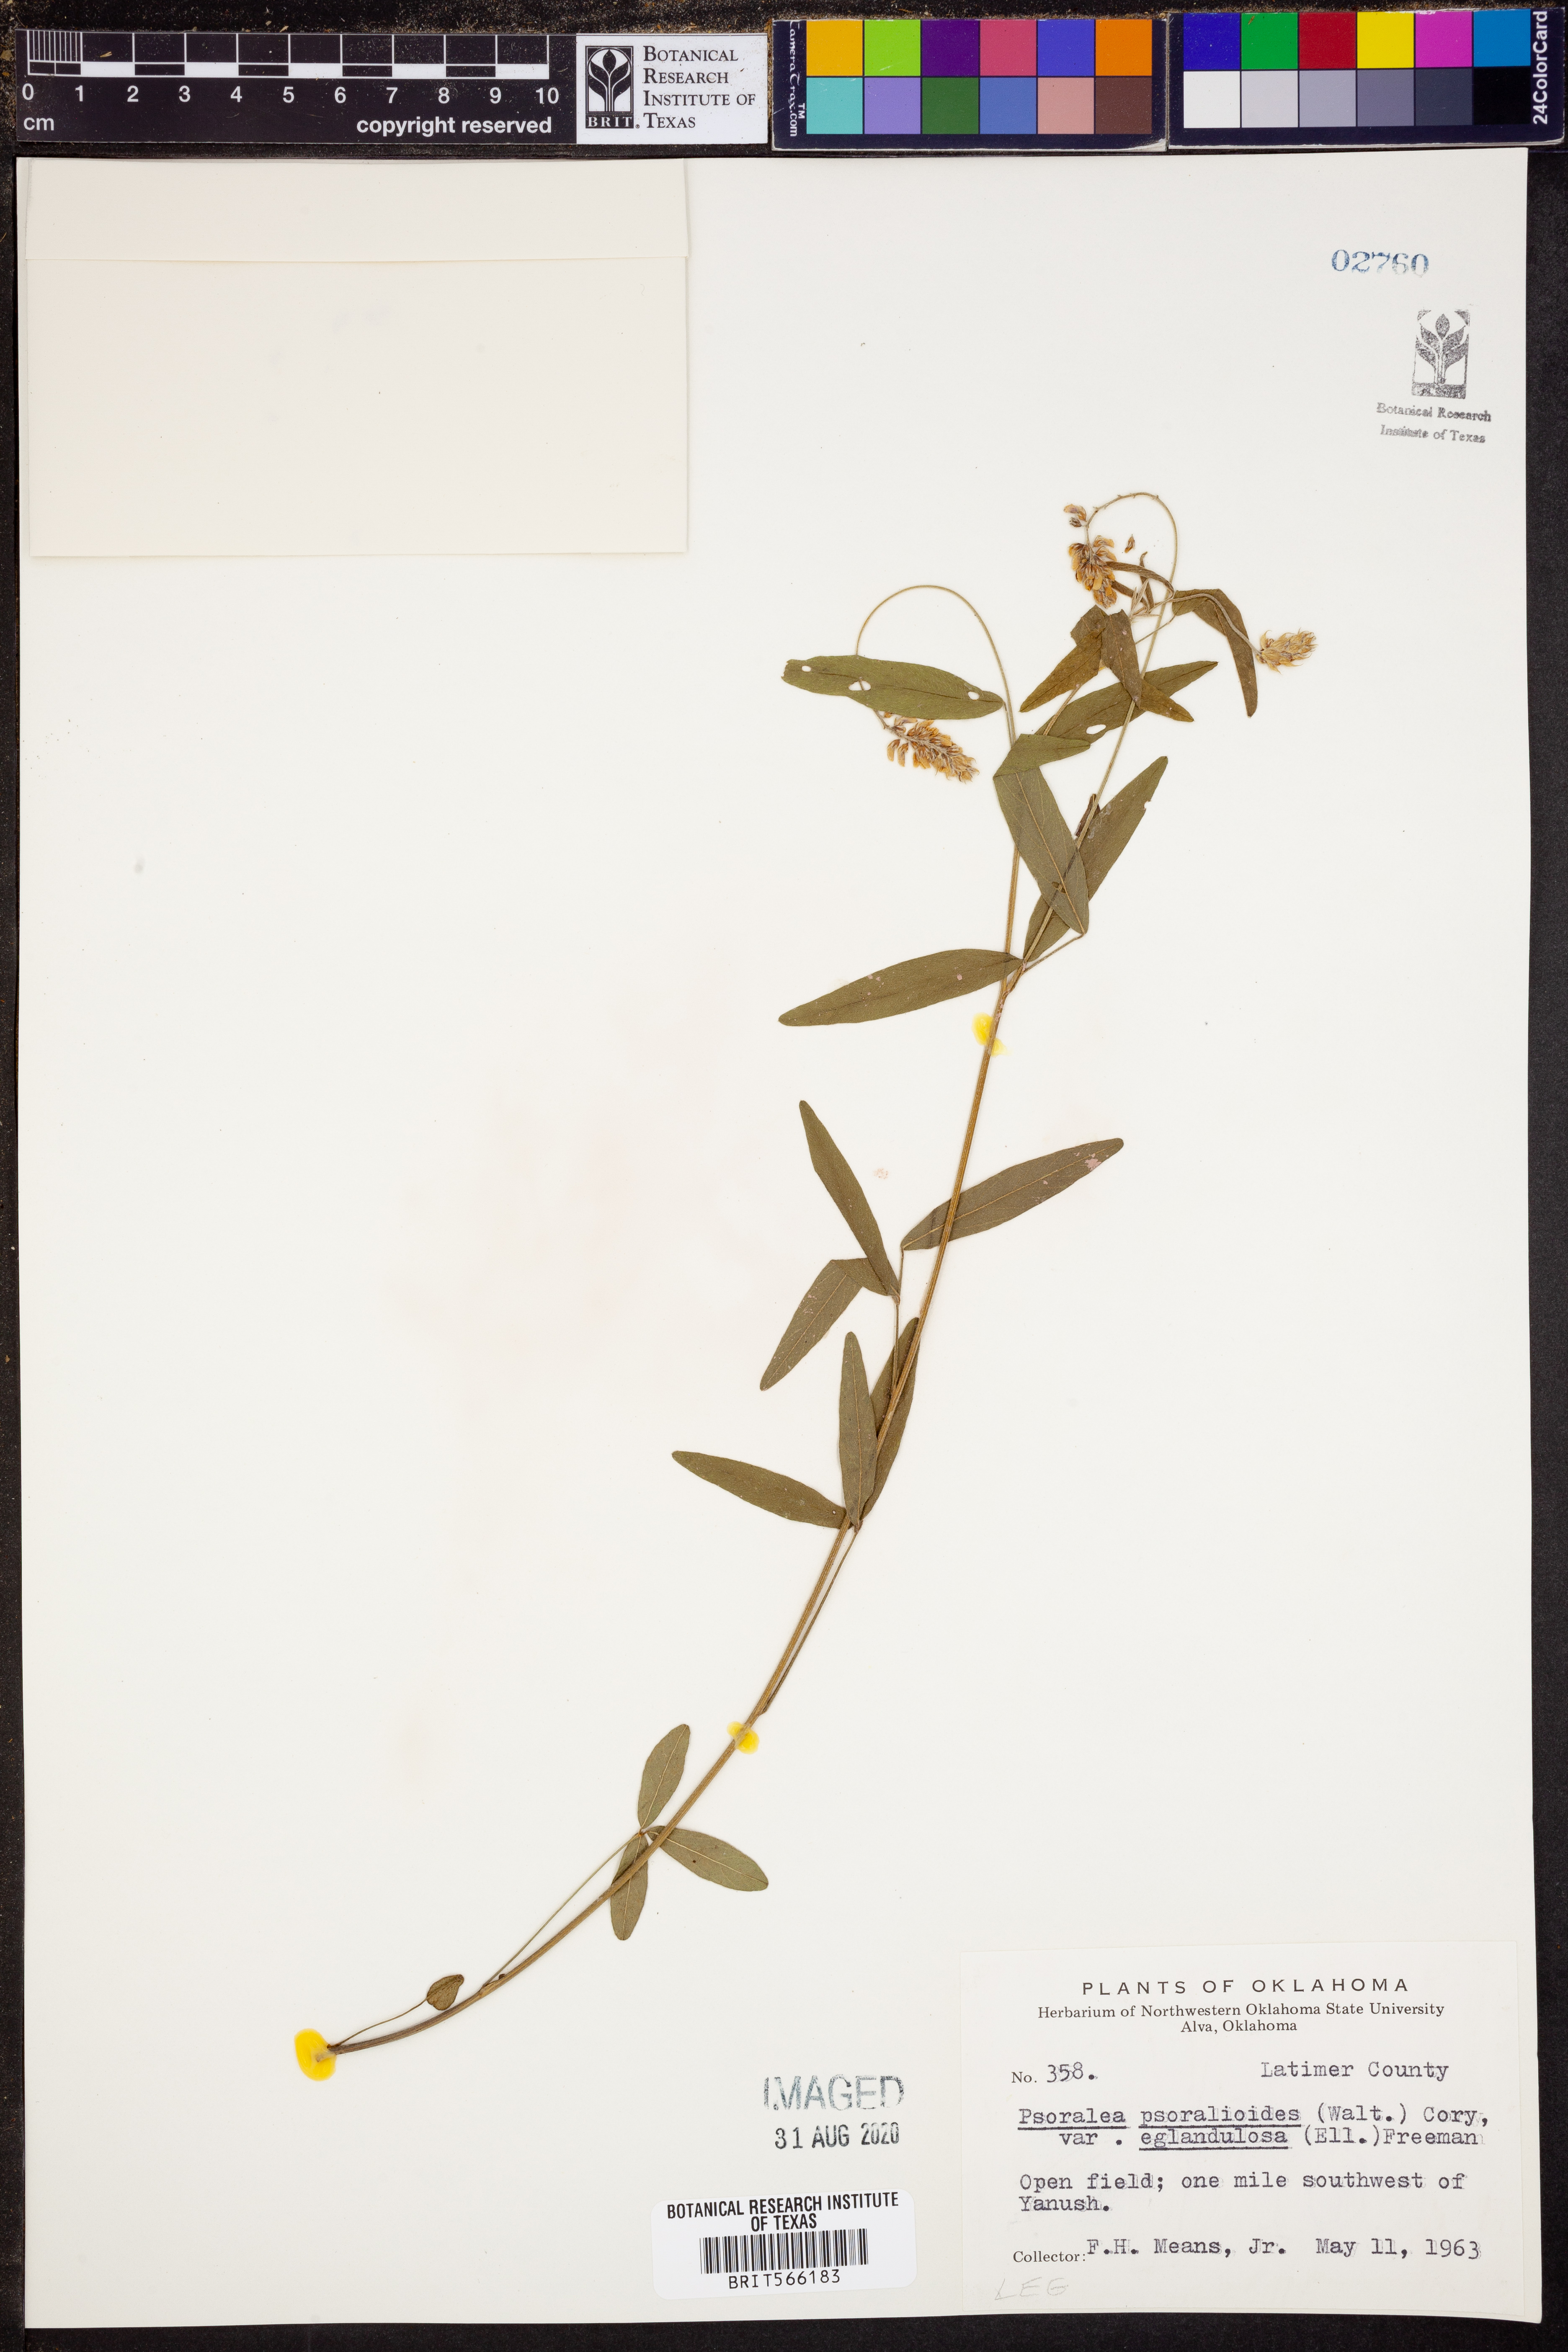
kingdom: Plantae
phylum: Tracheophyta
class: Magnoliopsida
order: Fabales
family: Fabaceae
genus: Orbexilum
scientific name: Orbexilum pedunculatum
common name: Sampson's snakeroot
